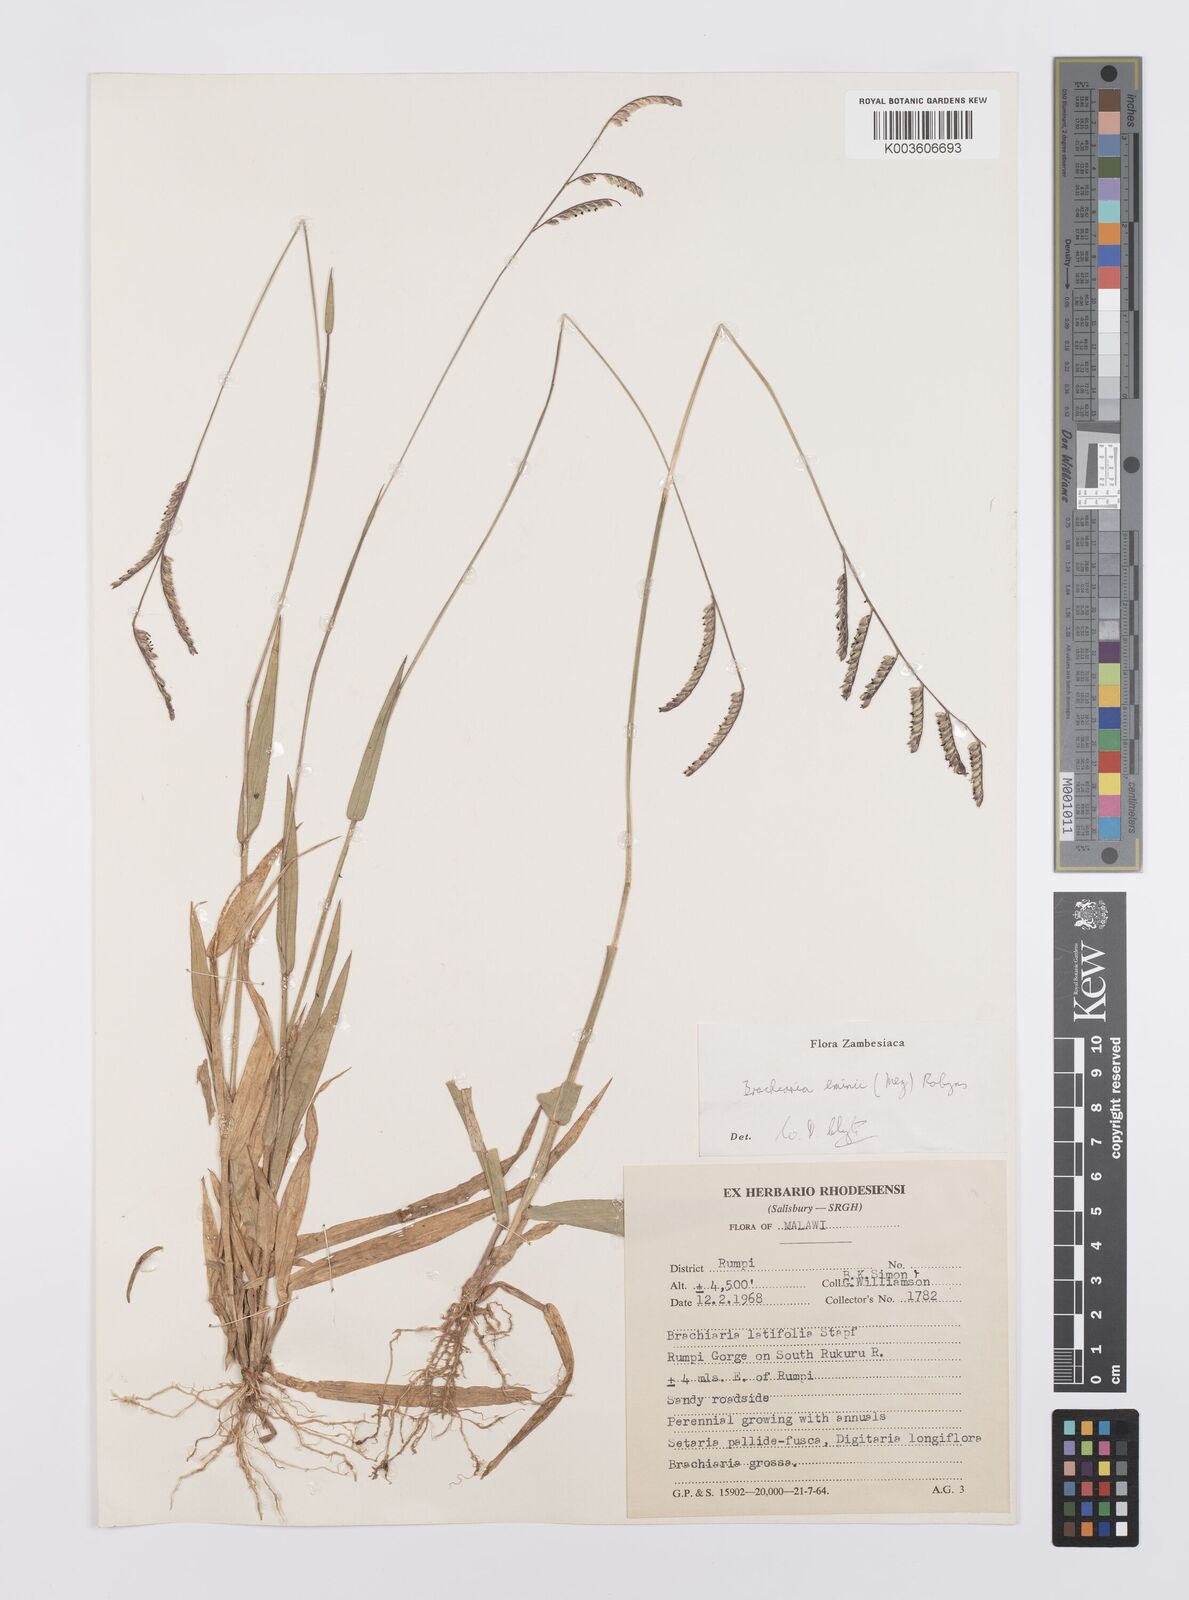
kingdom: Plantae
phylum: Tracheophyta
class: Liliopsida
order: Poales
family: Poaceae
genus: Urochloa
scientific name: Urochloa eminii
